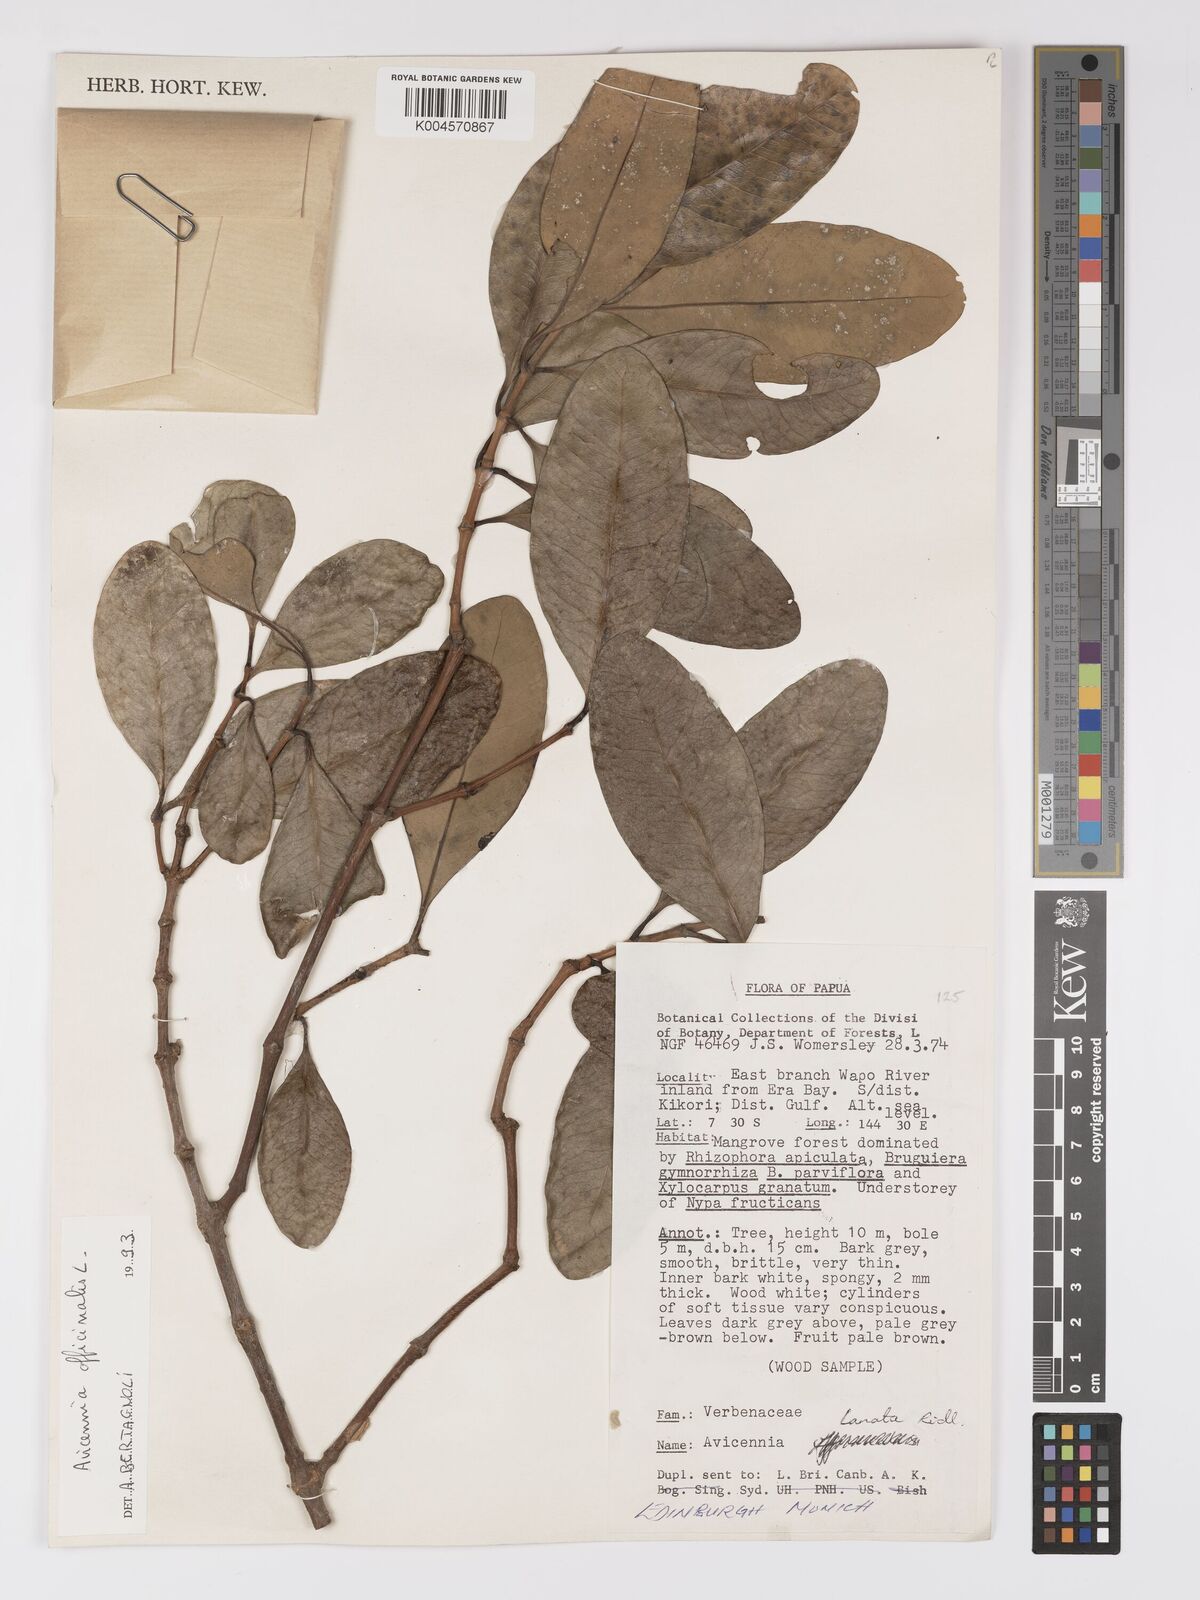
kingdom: Plantae
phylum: Tracheophyta
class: Magnoliopsida
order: Lamiales
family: Acanthaceae
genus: Avicennia
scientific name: Avicennia officinalis
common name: Baen
